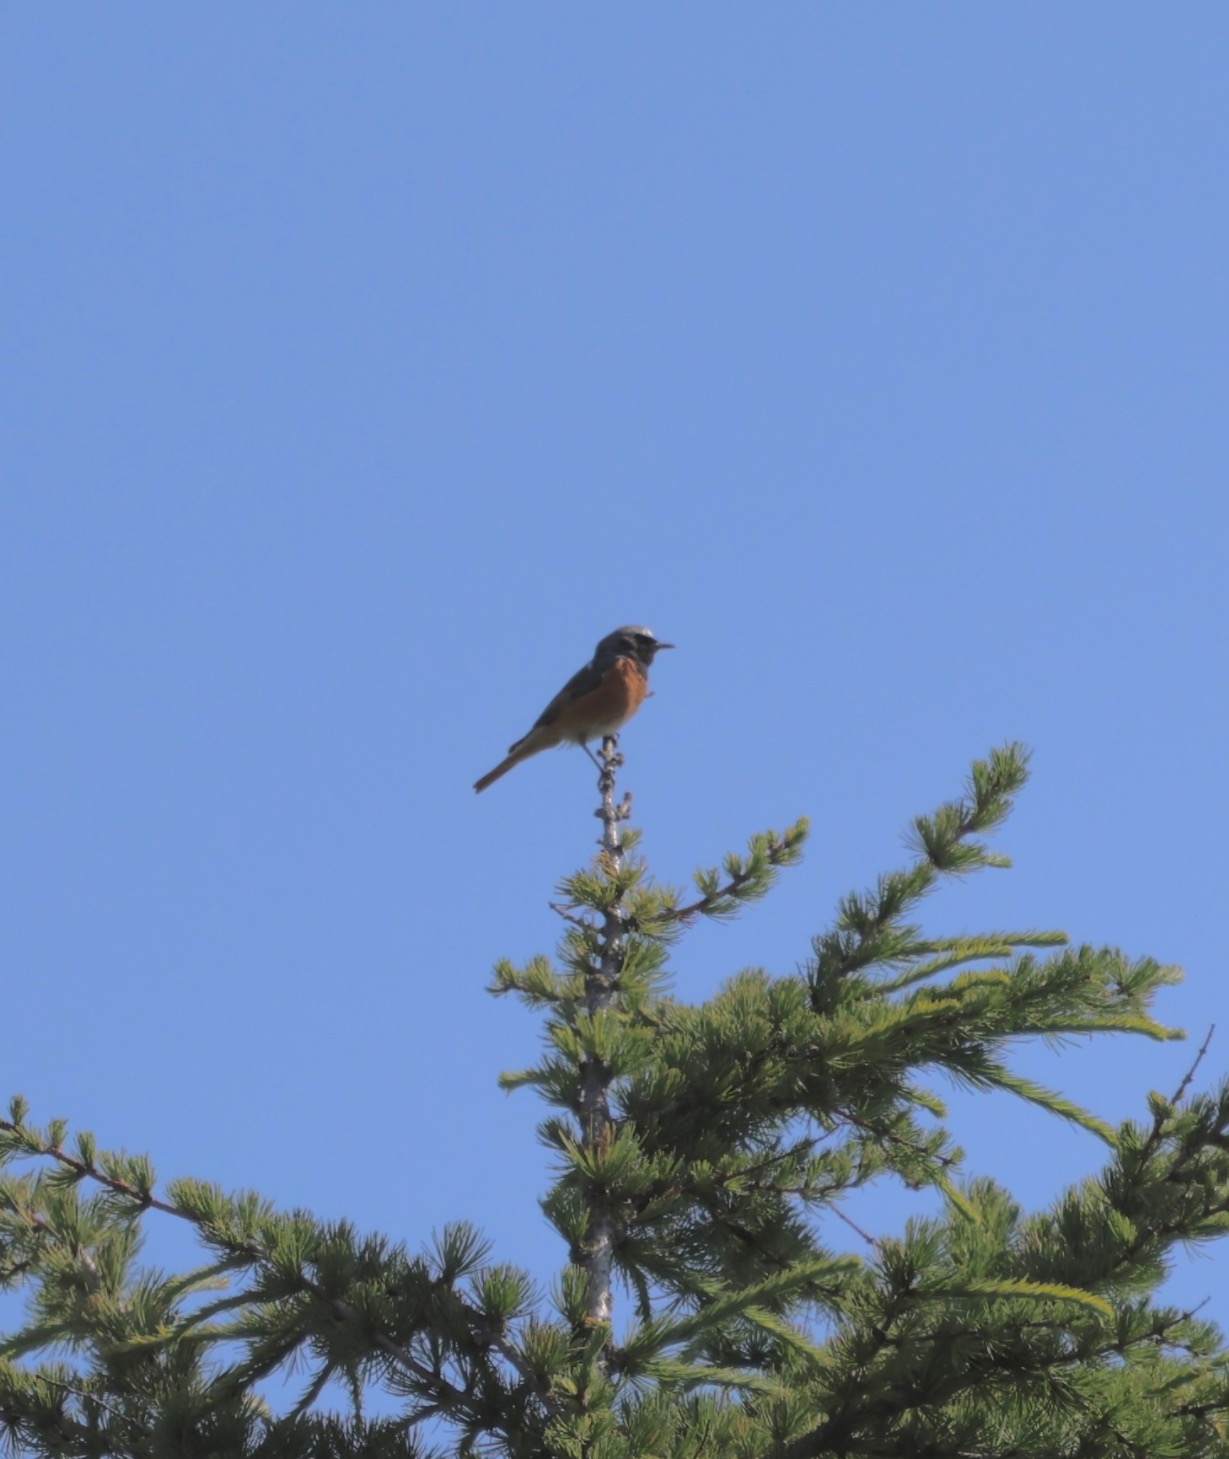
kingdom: Animalia
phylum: Chordata
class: Aves
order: Passeriformes
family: Muscicapidae
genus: Phoenicurus
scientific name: Phoenicurus phoenicurus
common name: Rødstjert
